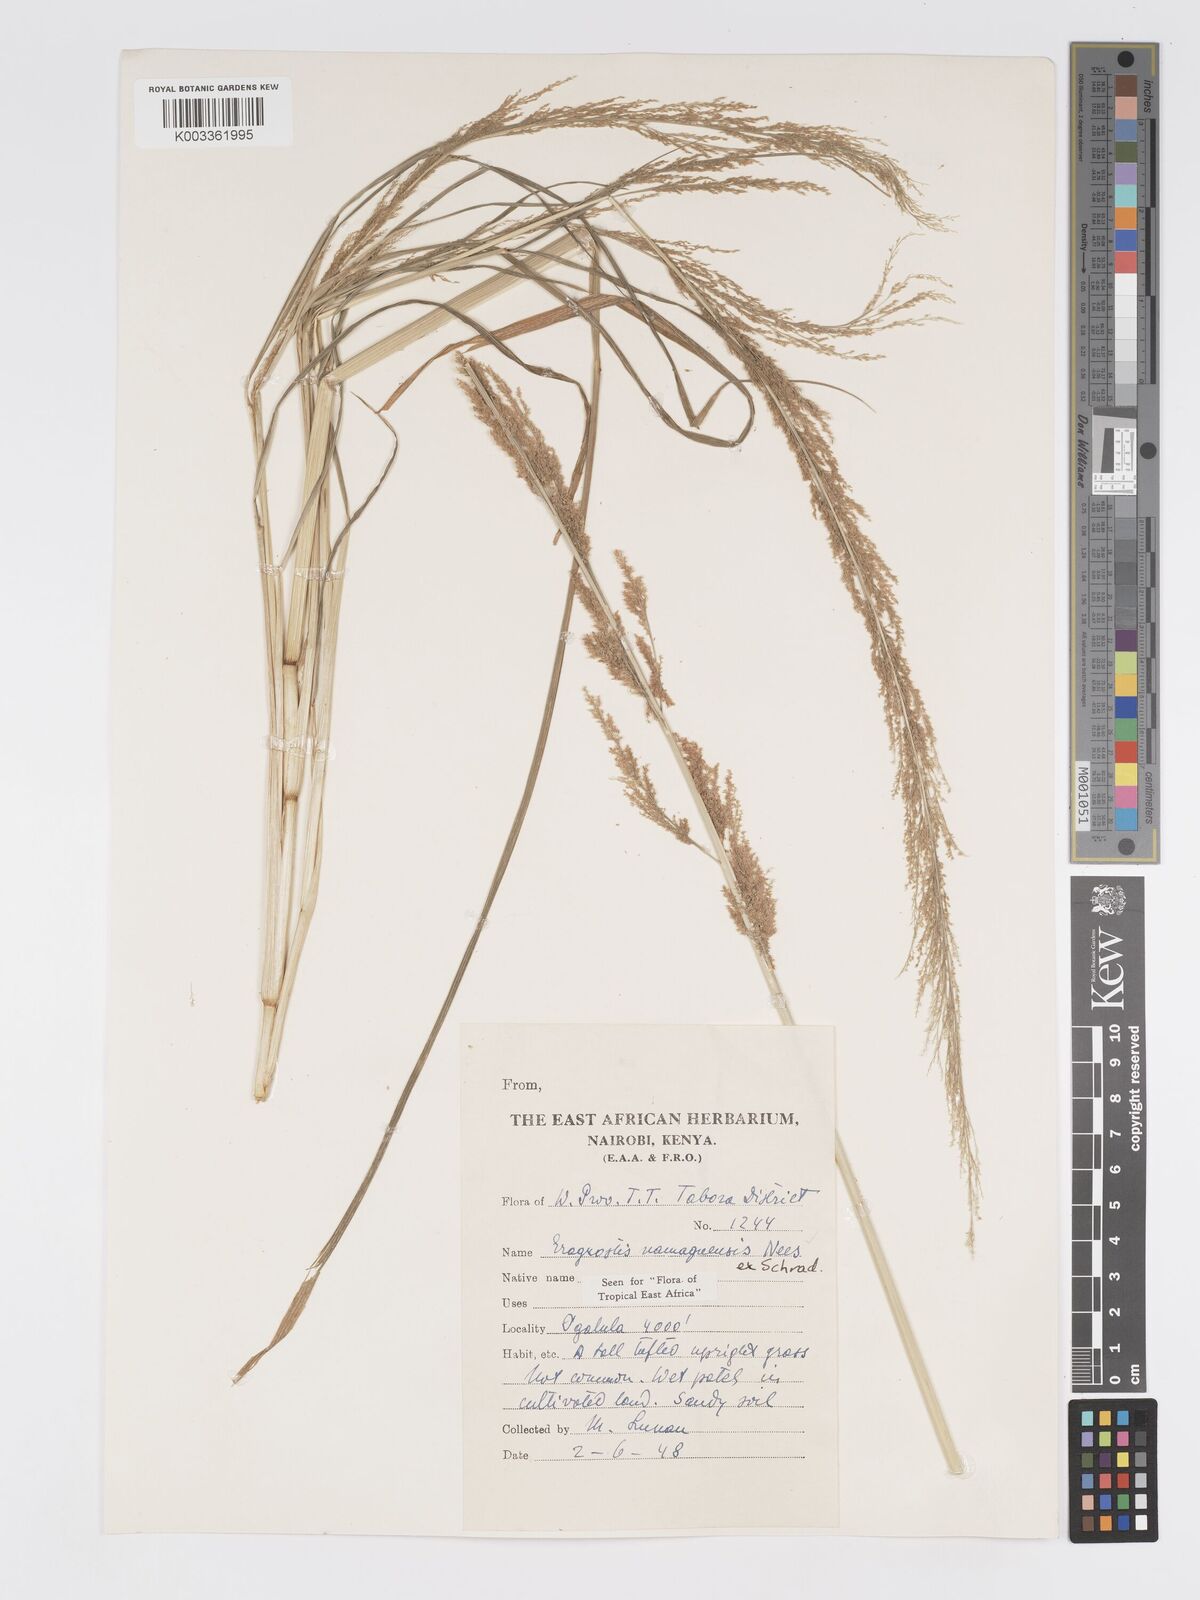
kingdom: Plantae
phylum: Tracheophyta
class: Liliopsida
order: Poales
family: Poaceae
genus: Eragrostis
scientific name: Eragrostis japonica
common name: Pond lovegrass
